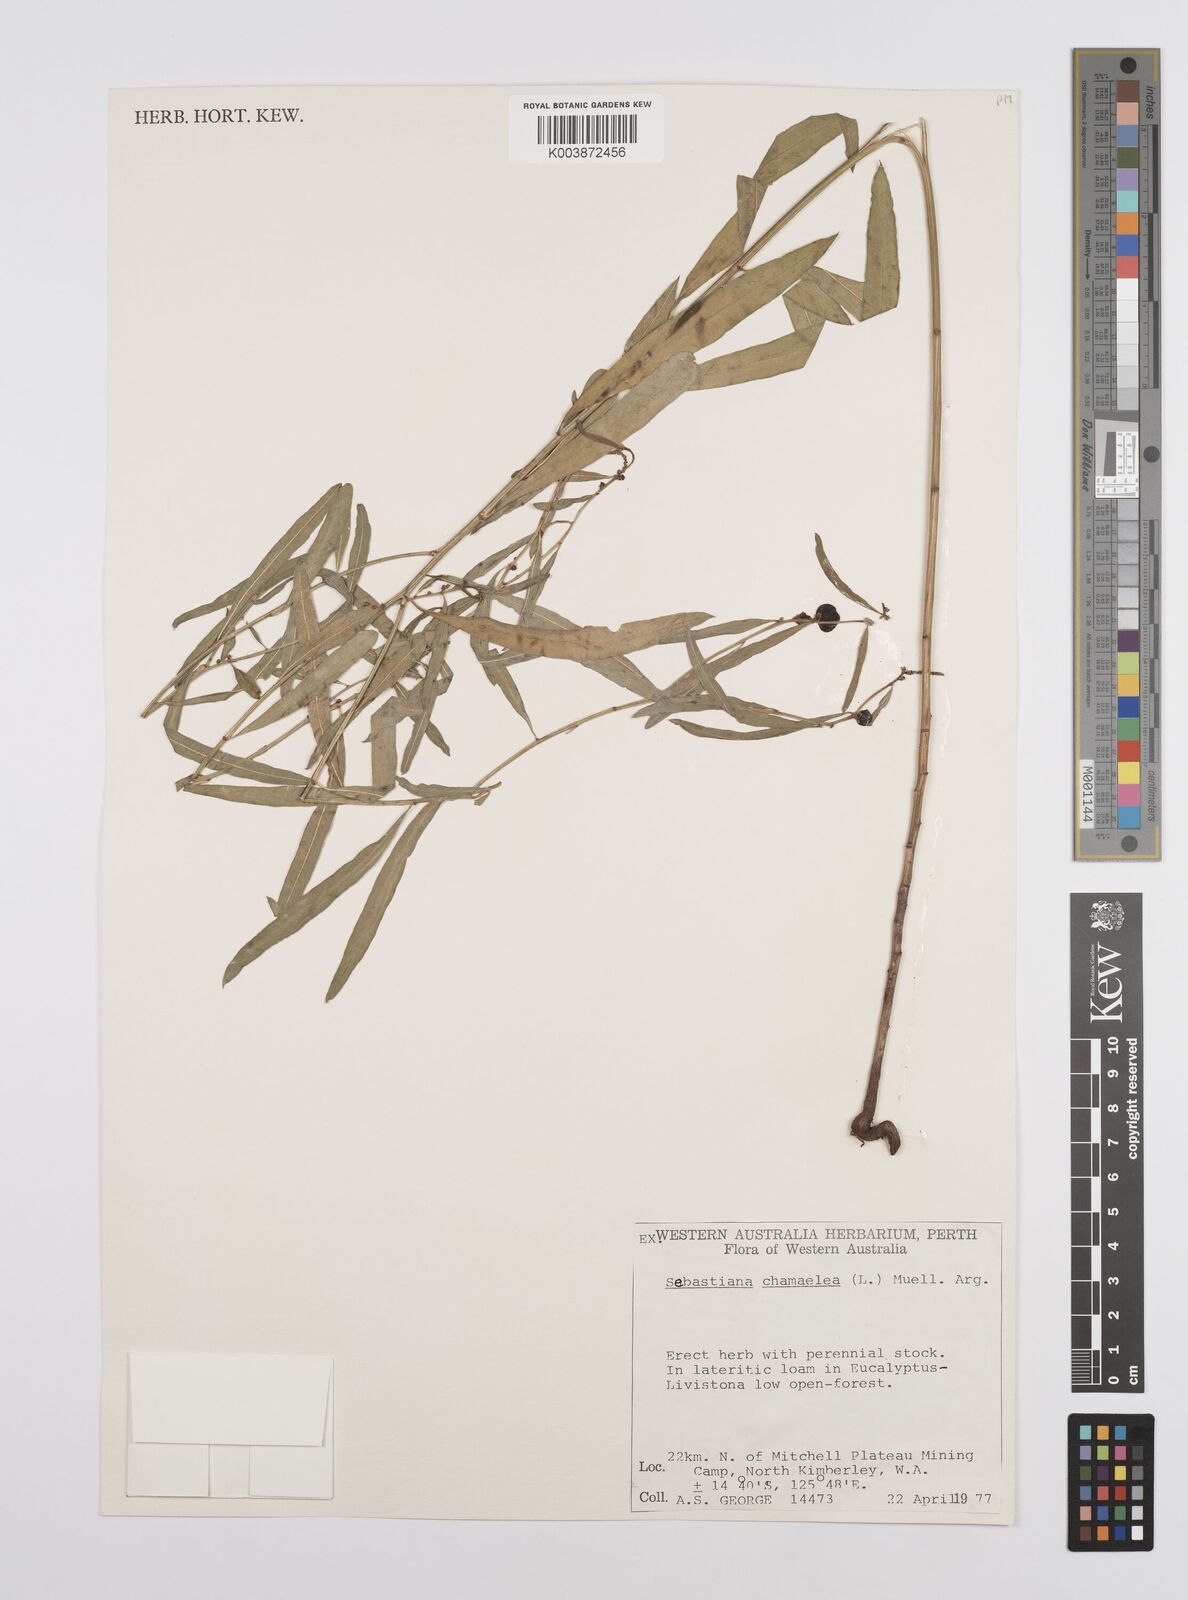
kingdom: Plantae
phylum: Tracheophyta
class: Magnoliopsida
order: Malpighiales
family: Euphorbiaceae
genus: Microstachys
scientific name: Microstachys chamaelea
